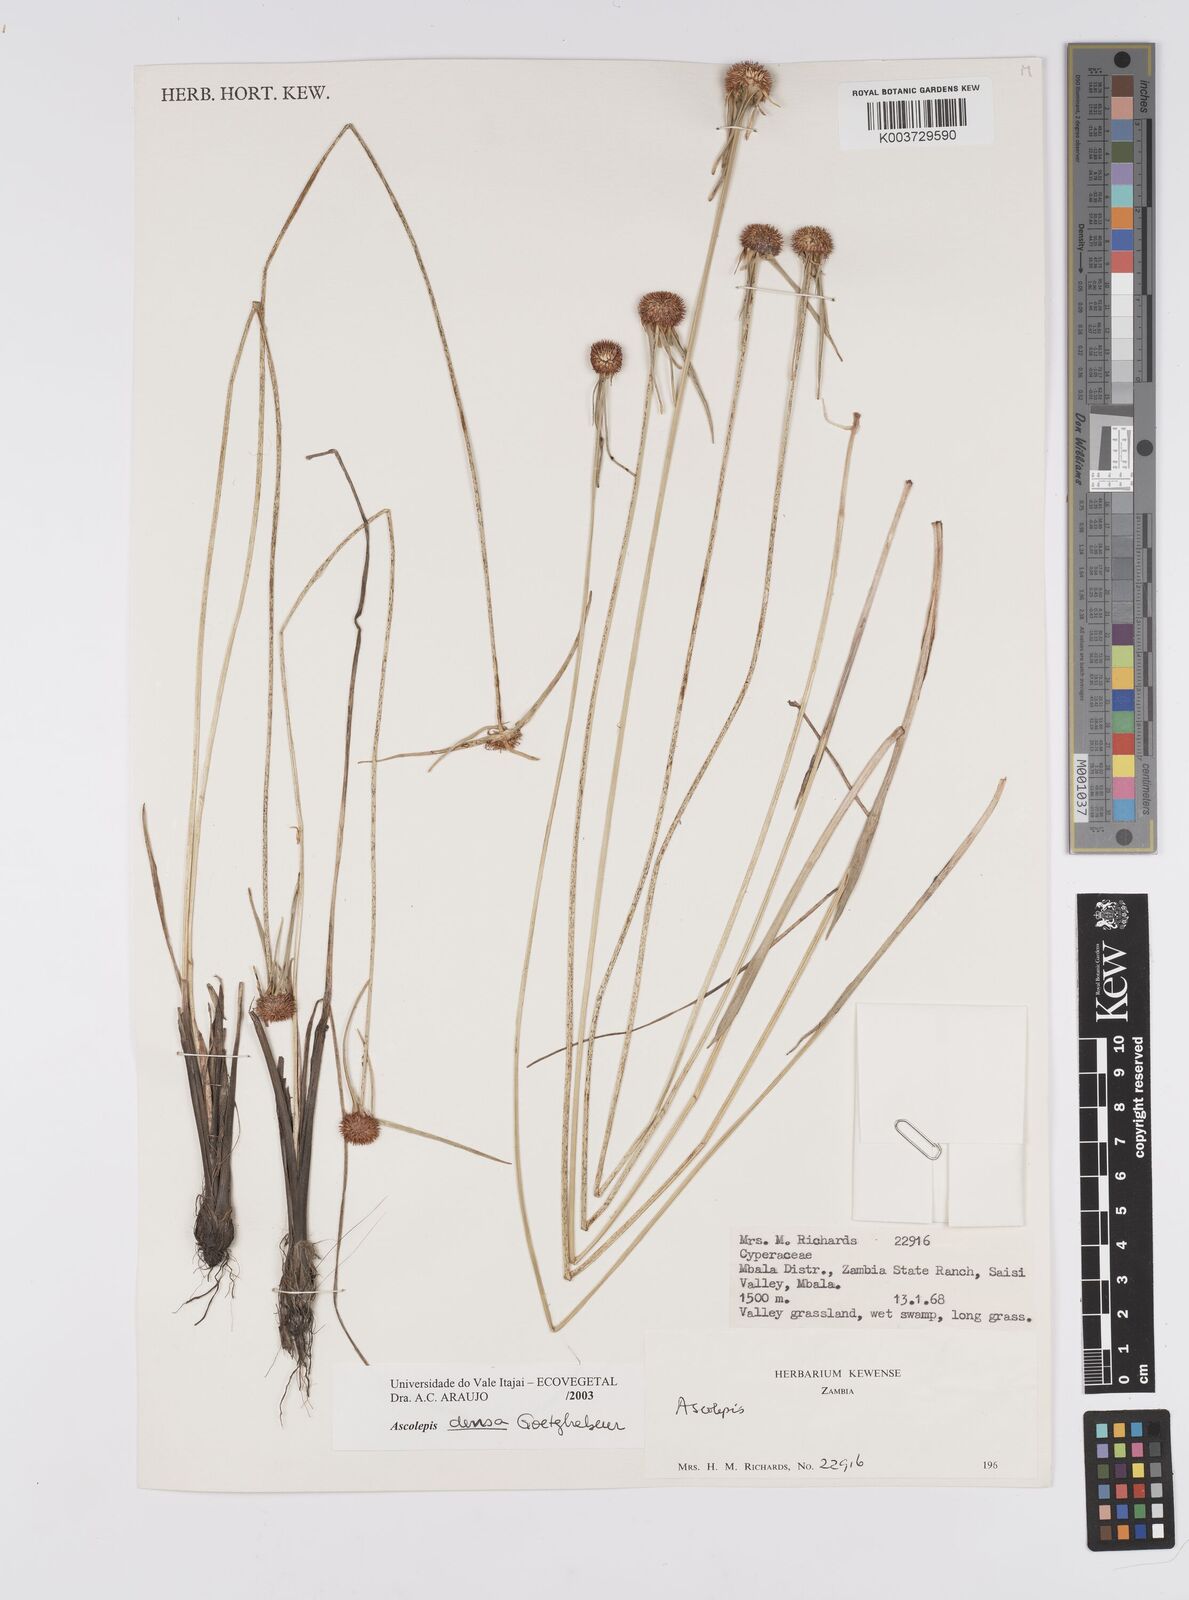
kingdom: Plantae
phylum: Tracheophyta
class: Liliopsida
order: Poales
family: Cyperaceae
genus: Cyperus
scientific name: Cyperus
